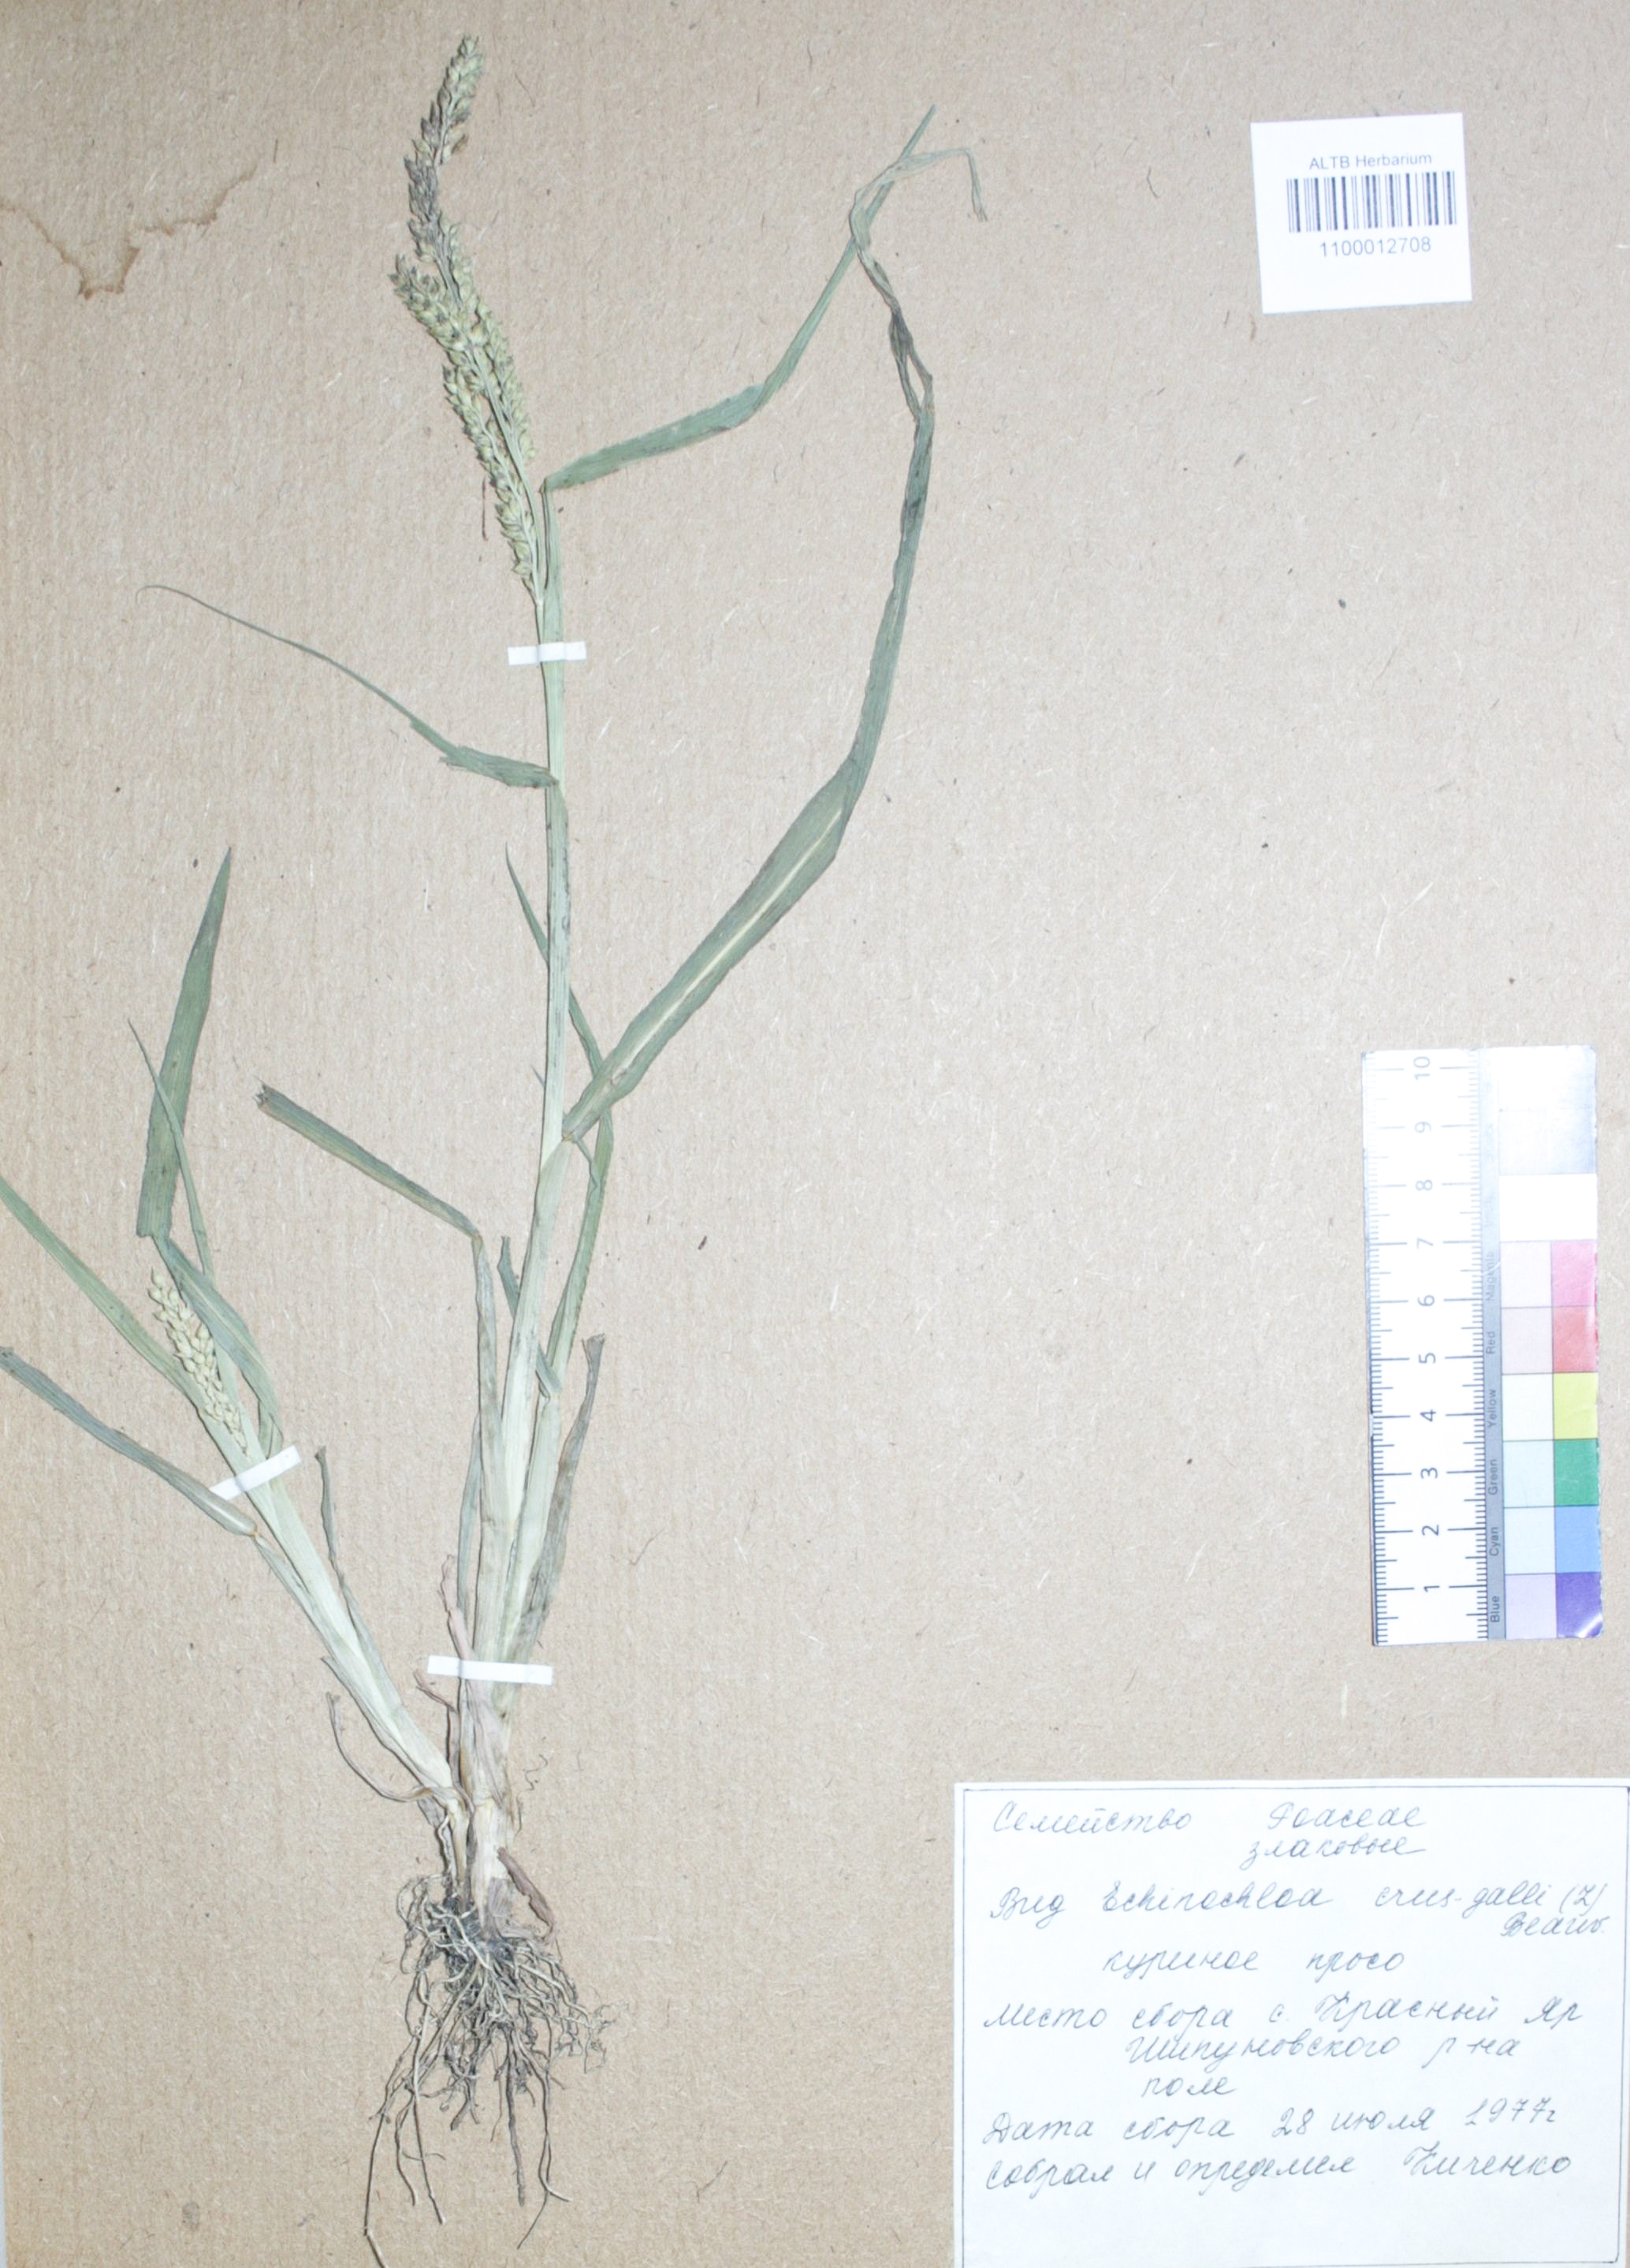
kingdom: Plantae
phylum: Tracheophyta
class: Liliopsida
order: Poales
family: Poaceae
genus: Echinochloa
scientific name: Echinochloa crus-galli
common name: Cockspur
